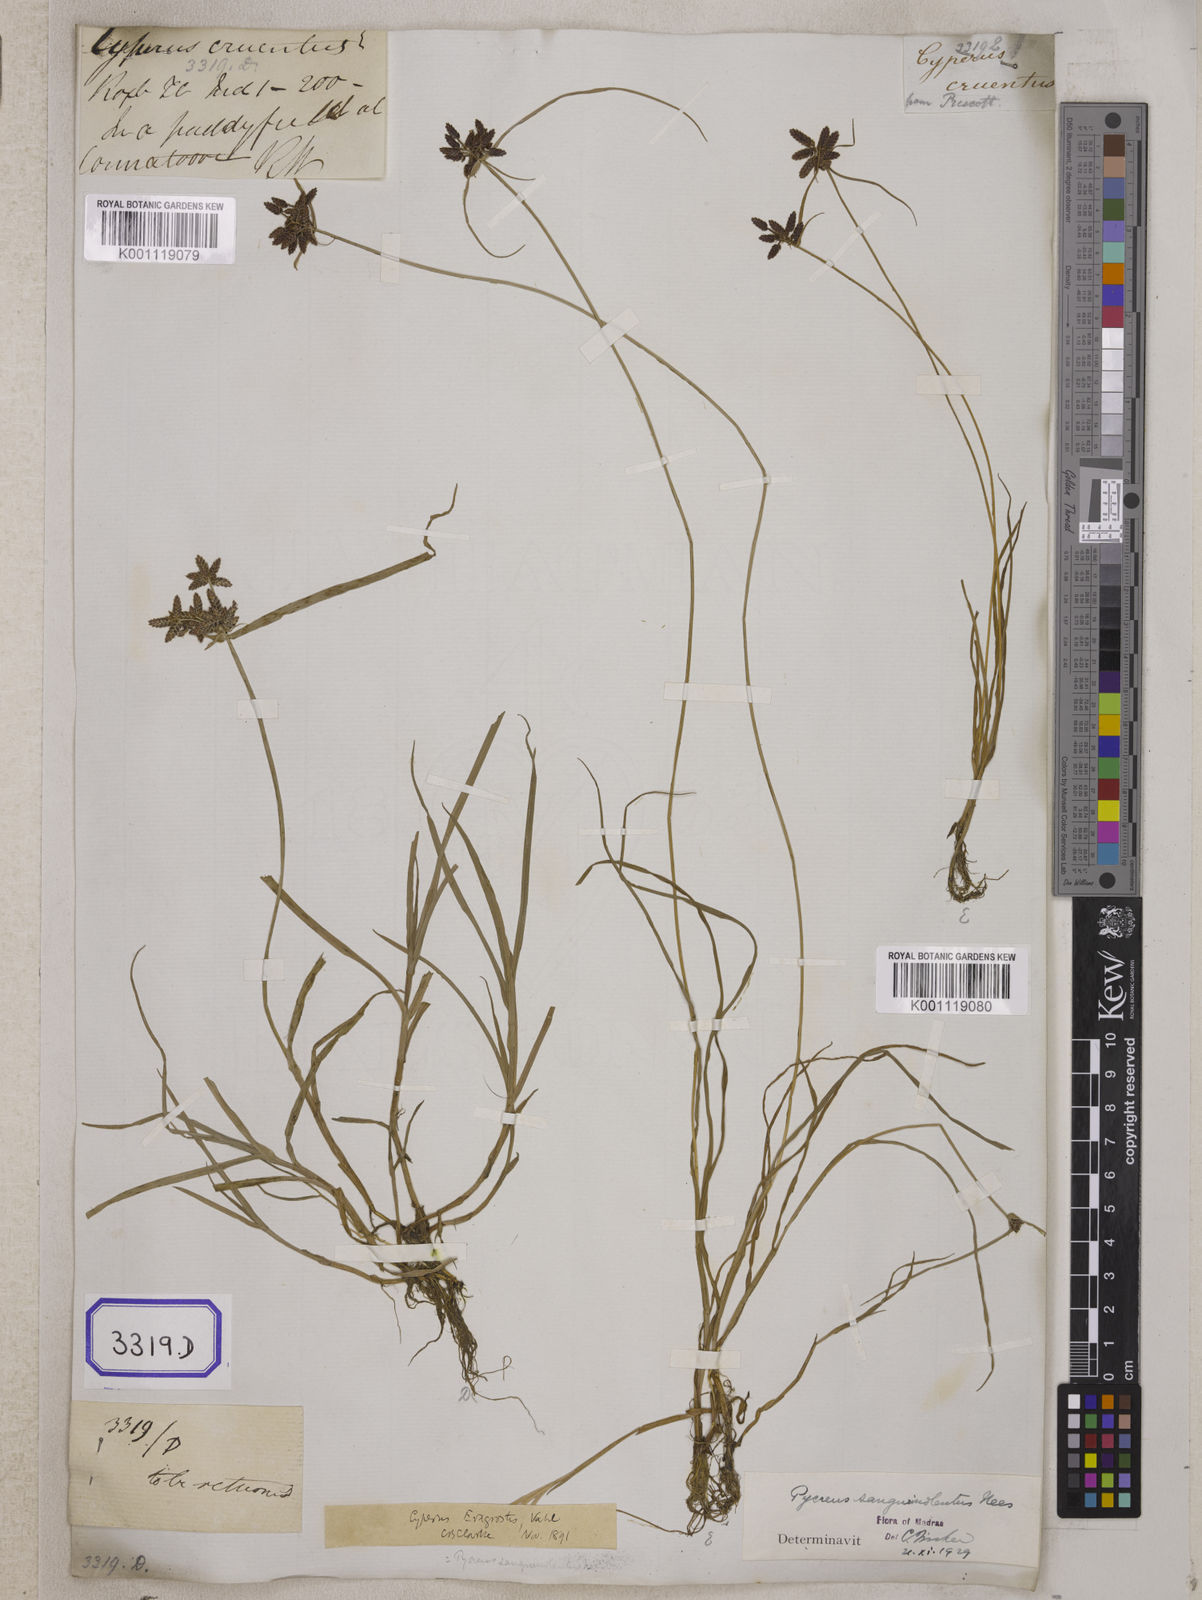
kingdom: Plantae
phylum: Tracheophyta
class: Liliopsida
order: Poales
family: Cyperaceae
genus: Cyperus
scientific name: Cyperus
